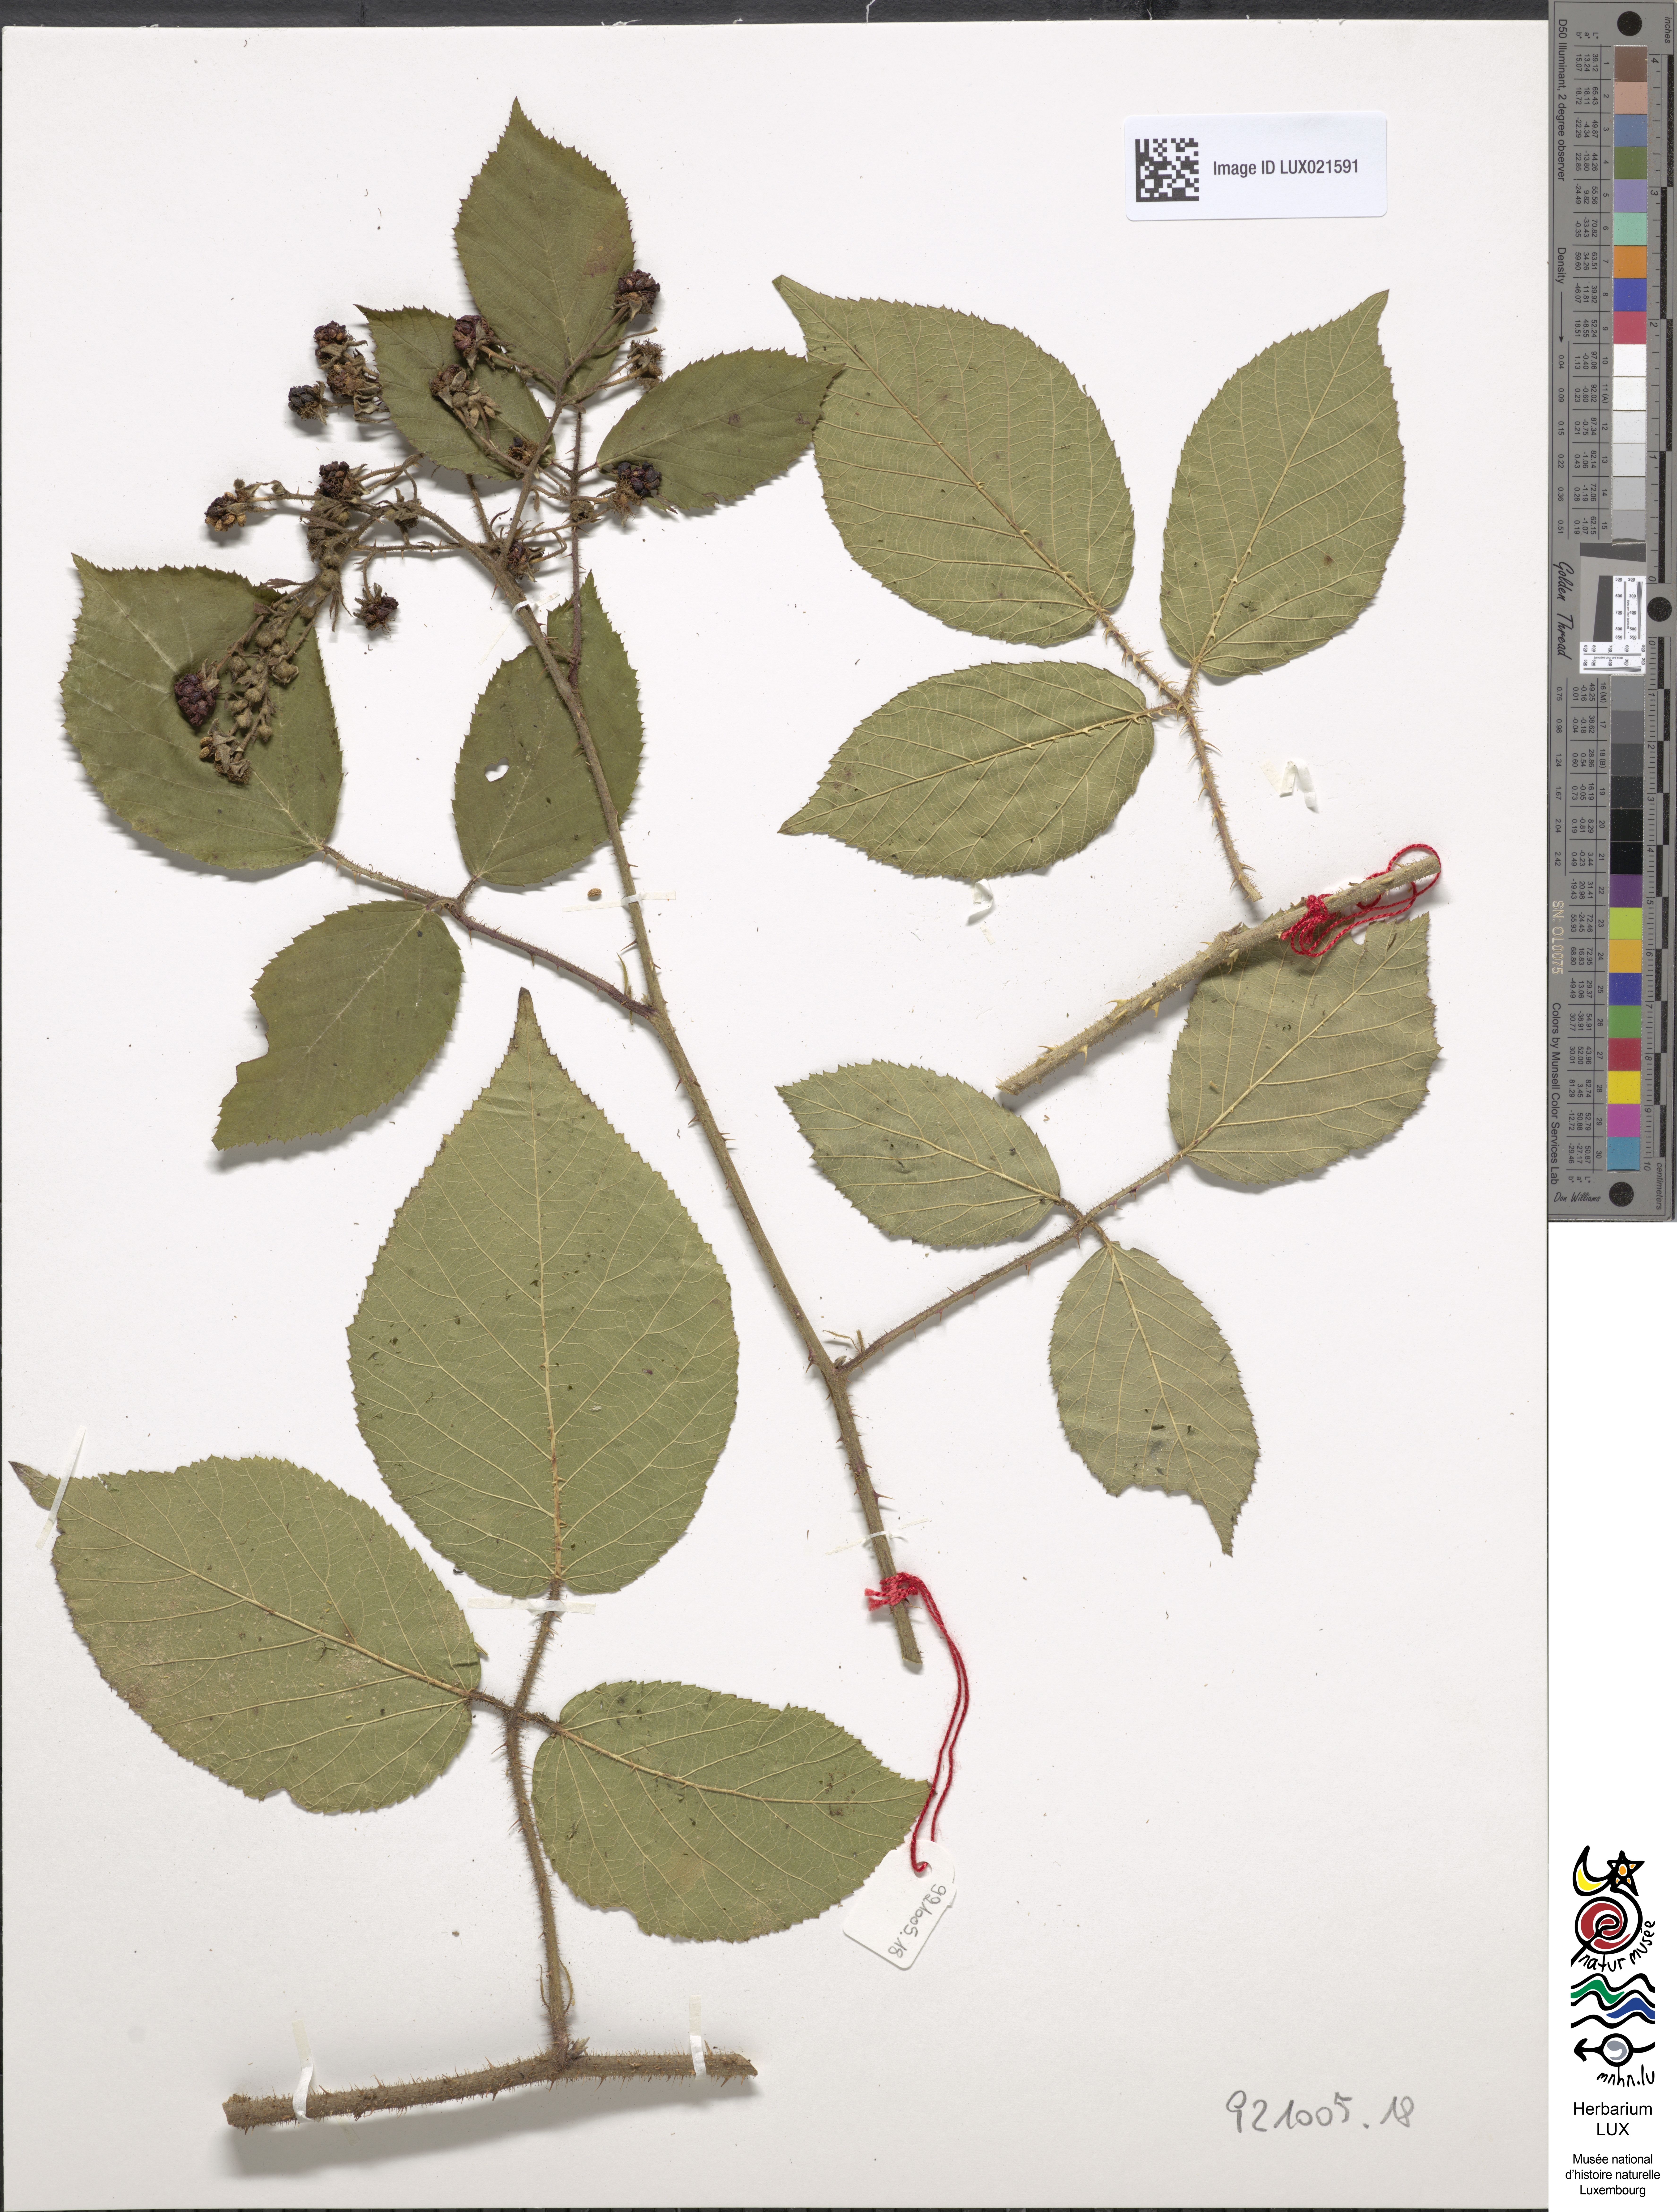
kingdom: Plantae
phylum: Tracheophyta
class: Magnoliopsida
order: Rosales
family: Rosaceae
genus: Rubus
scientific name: Rubus
